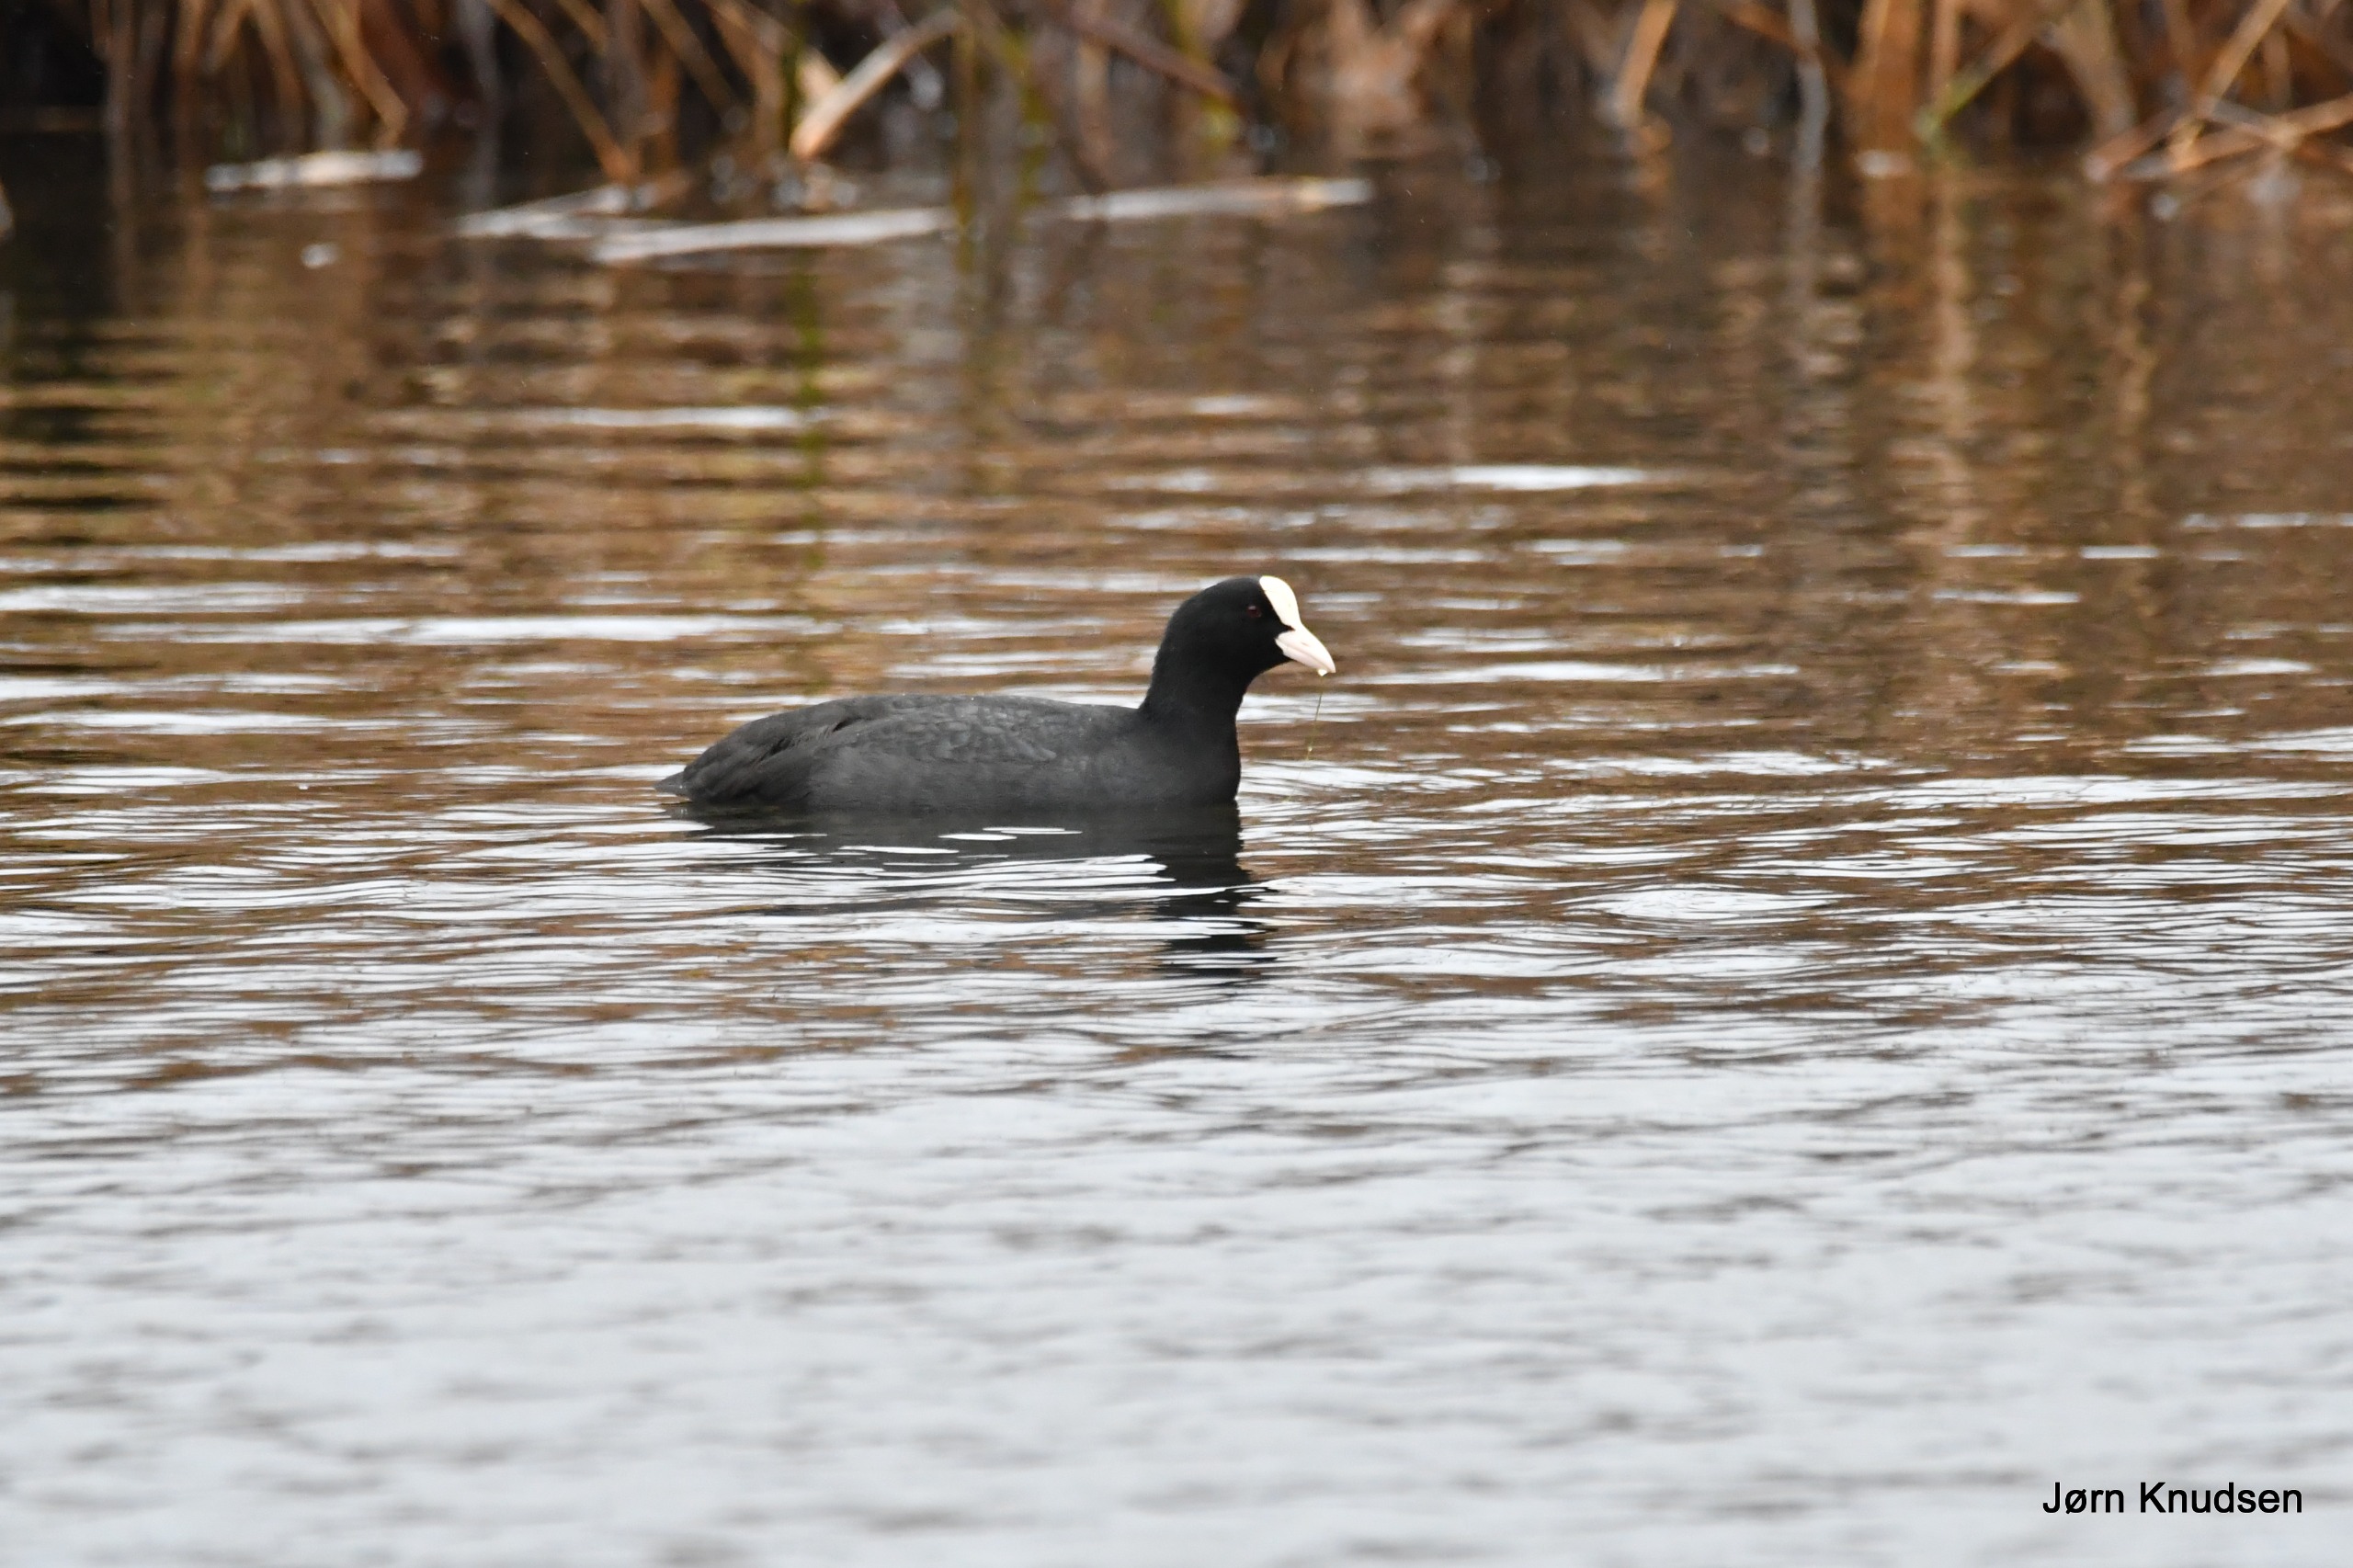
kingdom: Animalia
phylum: Chordata
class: Aves
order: Gruiformes
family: Rallidae
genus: Fulica
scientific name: Fulica atra
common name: Blishøne
